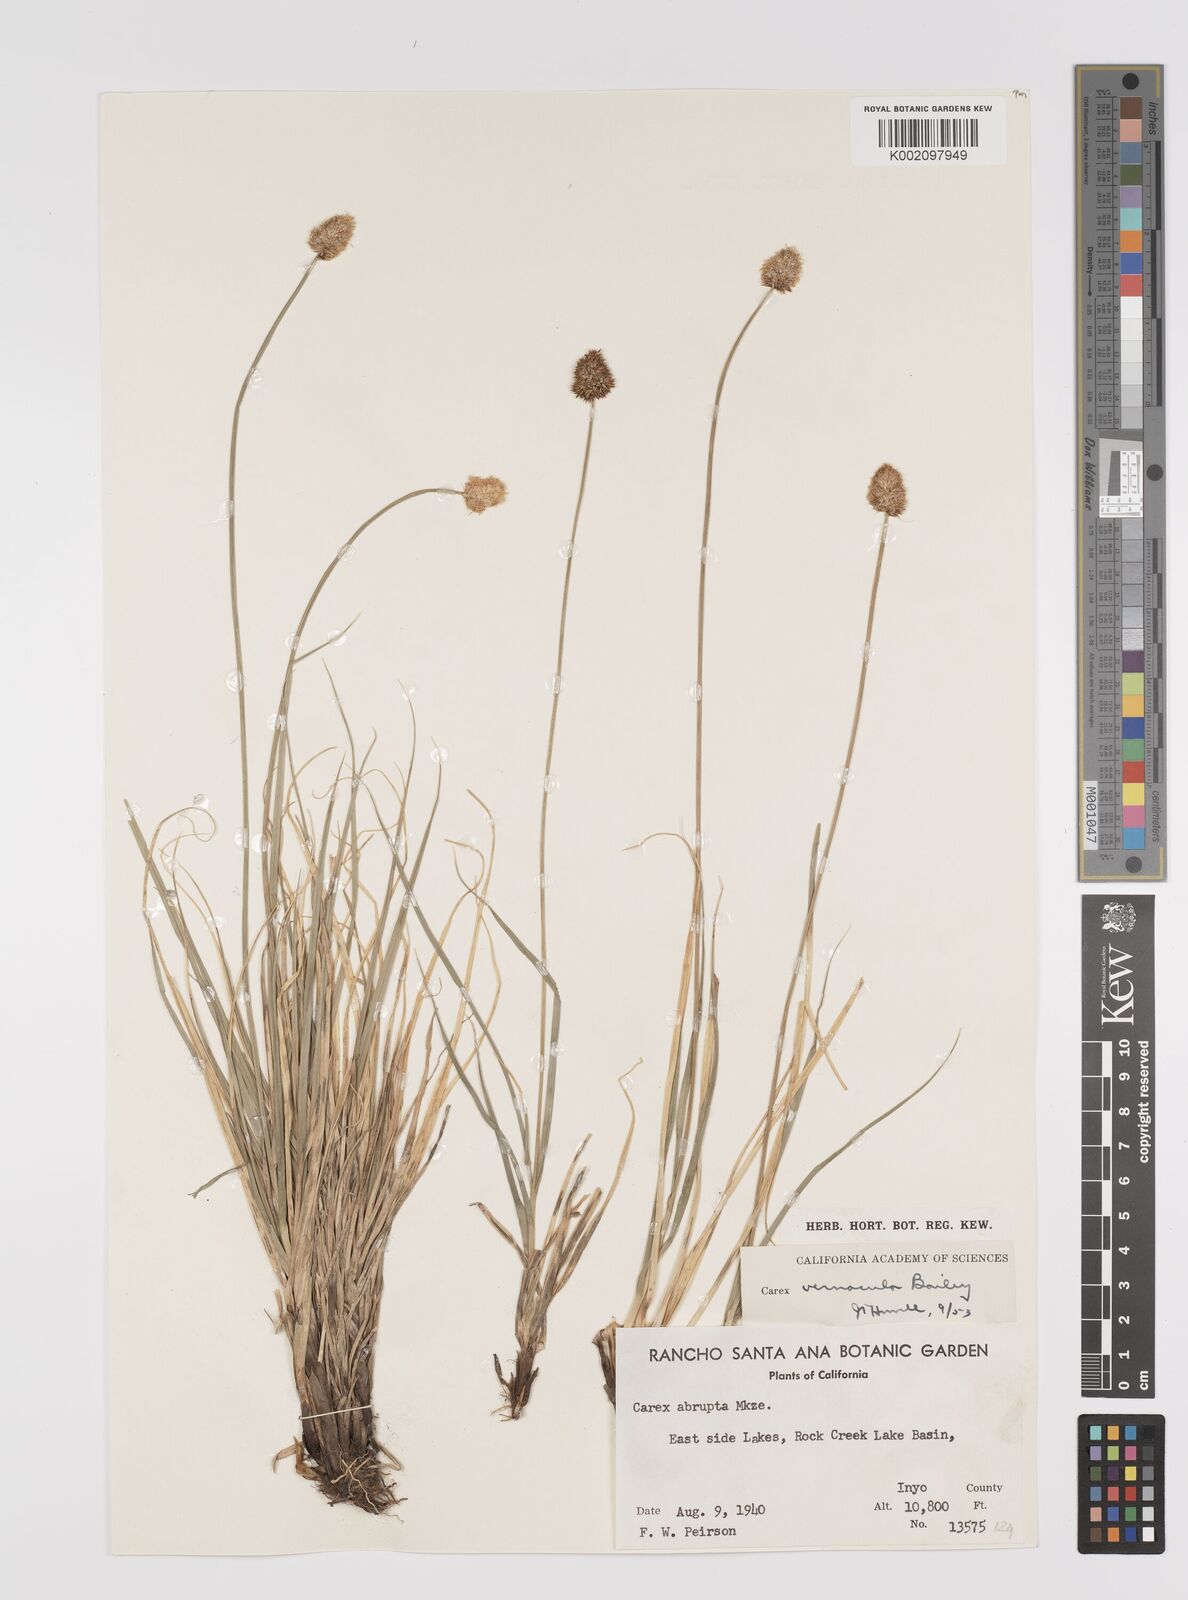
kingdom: Plantae
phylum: Tracheophyta
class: Liliopsida
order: Poales
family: Cyperaceae
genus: Carex
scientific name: Carex vernacula
